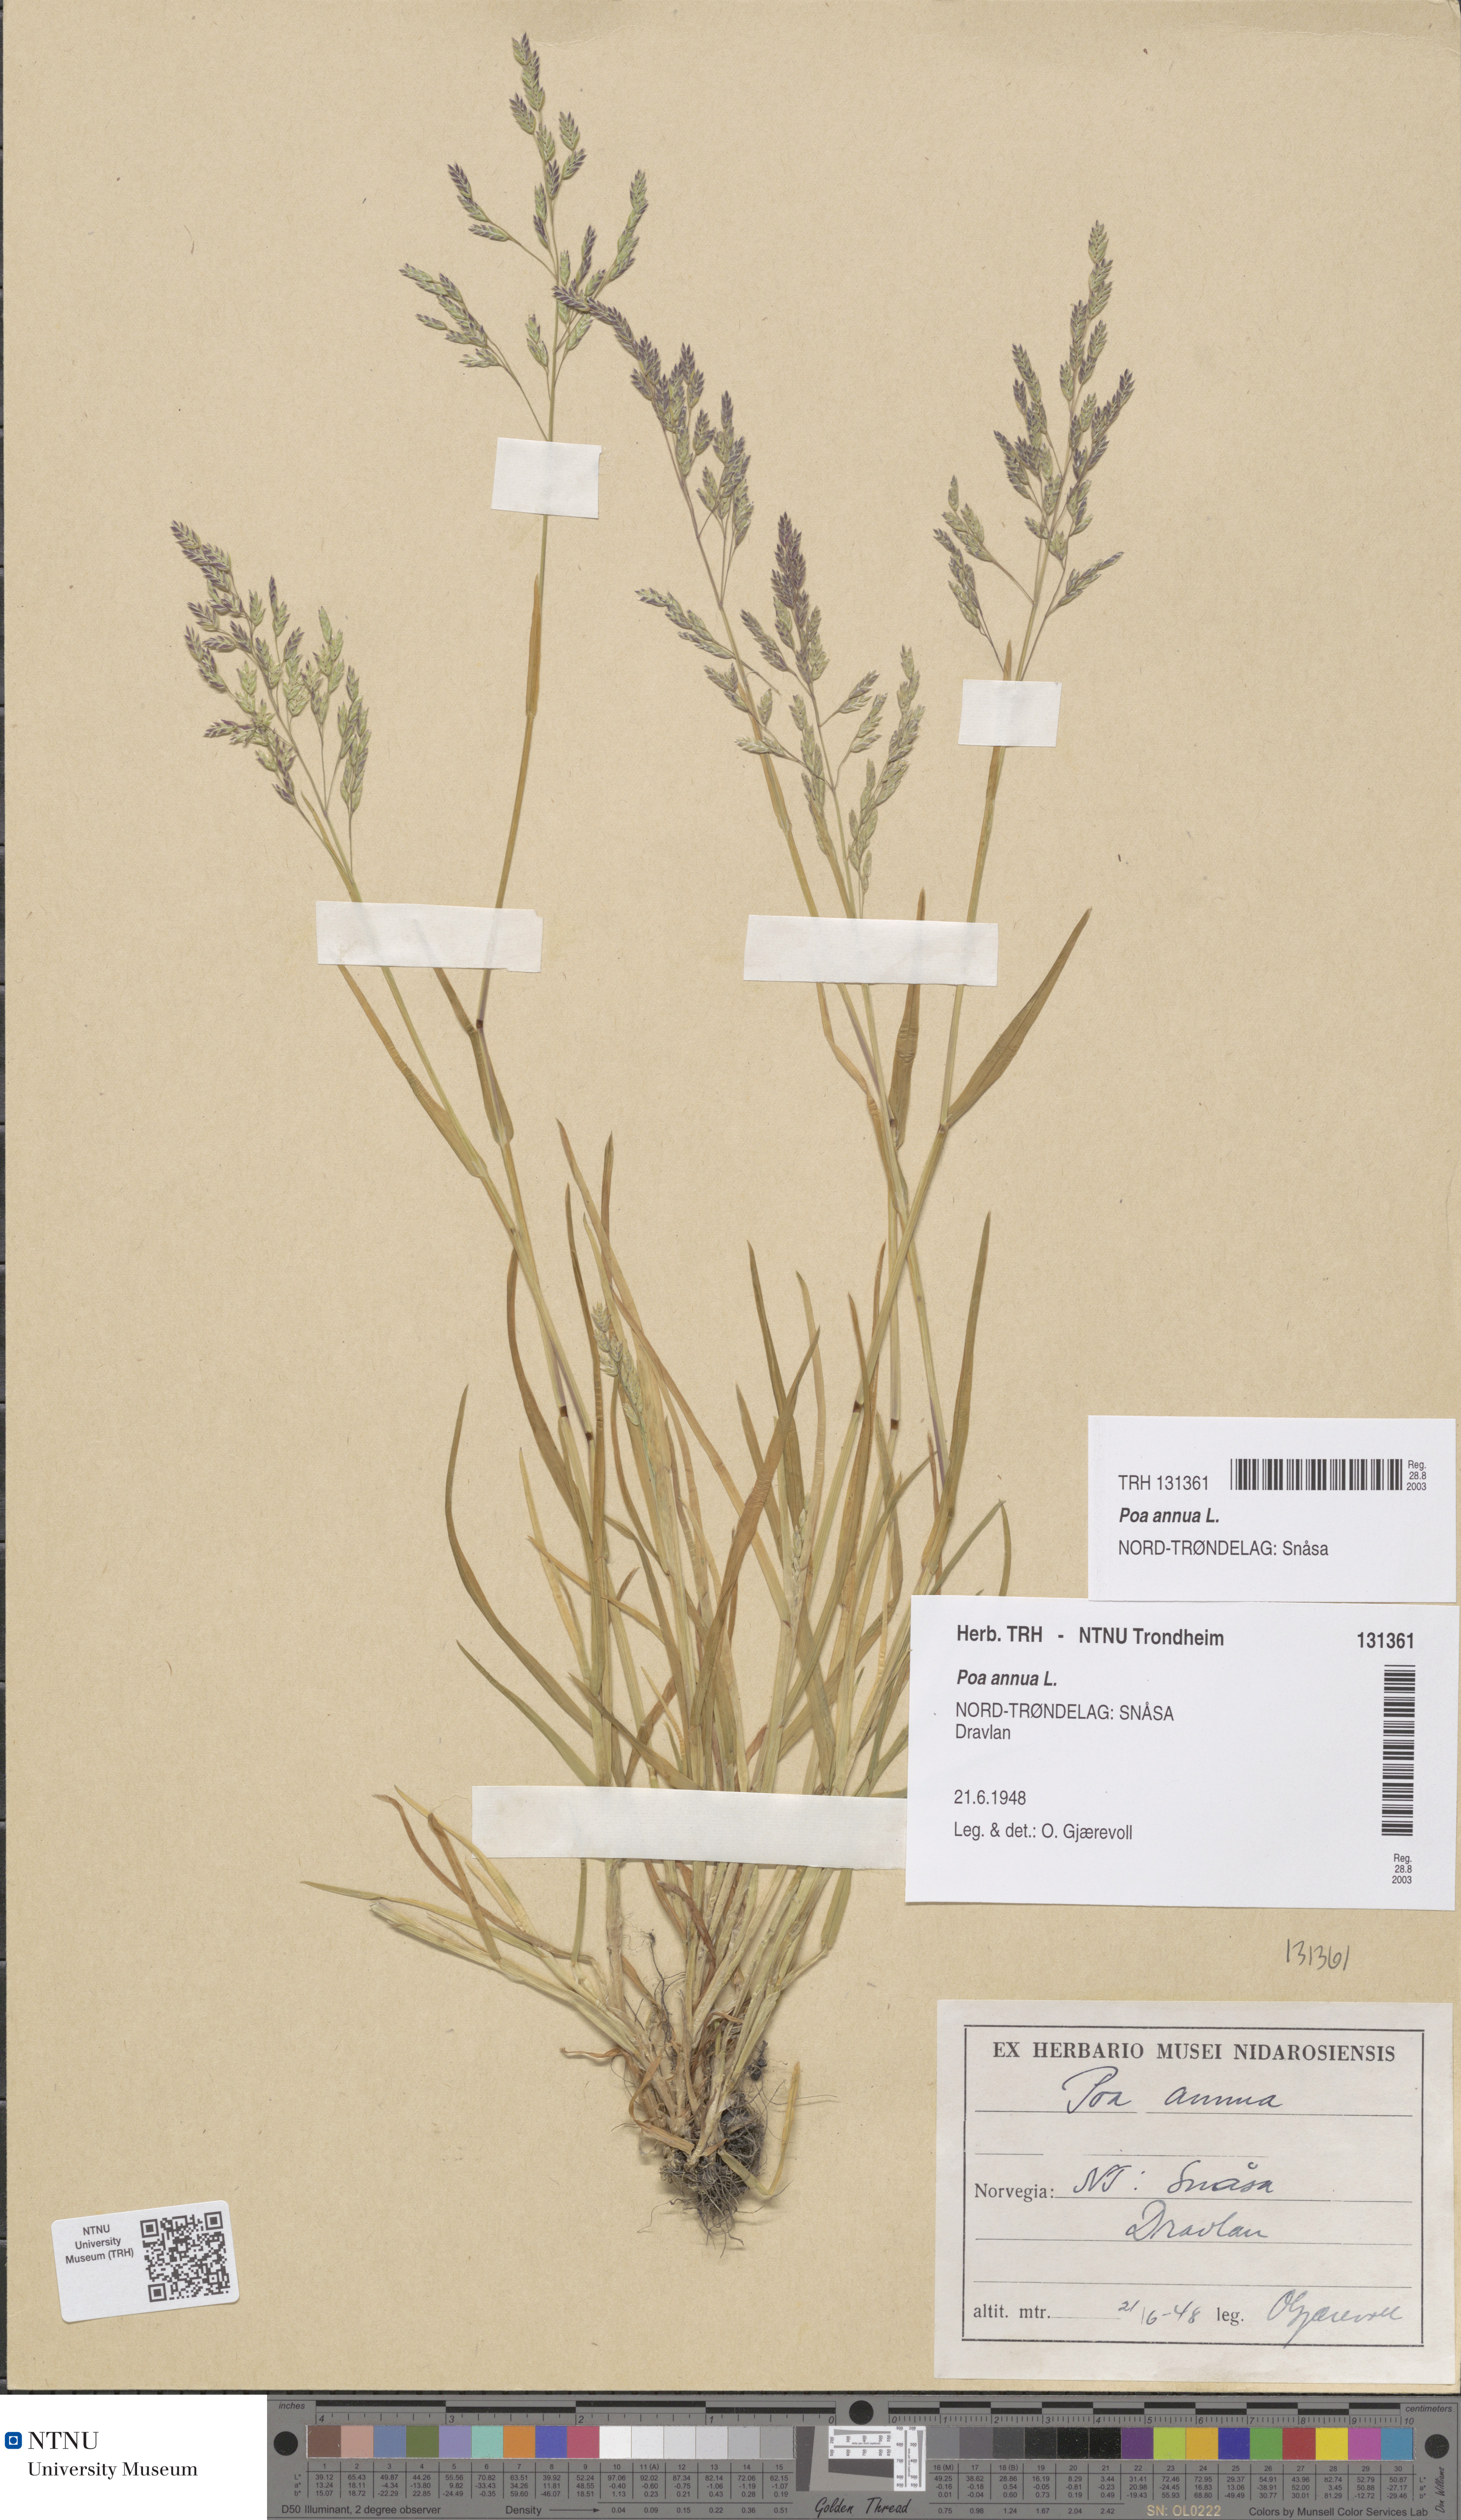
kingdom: Plantae
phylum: Tracheophyta
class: Liliopsida
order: Poales
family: Poaceae
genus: Poa
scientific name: Poa annua
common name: Annual bluegrass
